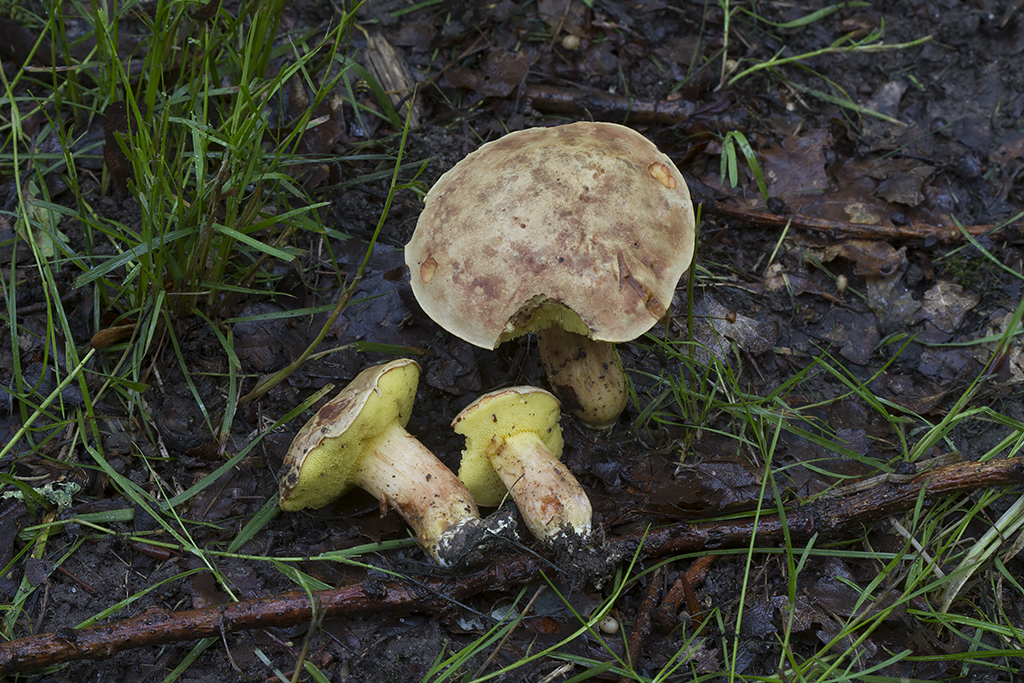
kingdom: Fungi
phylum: Basidiomycota
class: Agaricomycetes
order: Boletales
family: Boletaceae
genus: Xerocomus
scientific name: Xerocomus subtomentosus
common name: filtet rørhat
